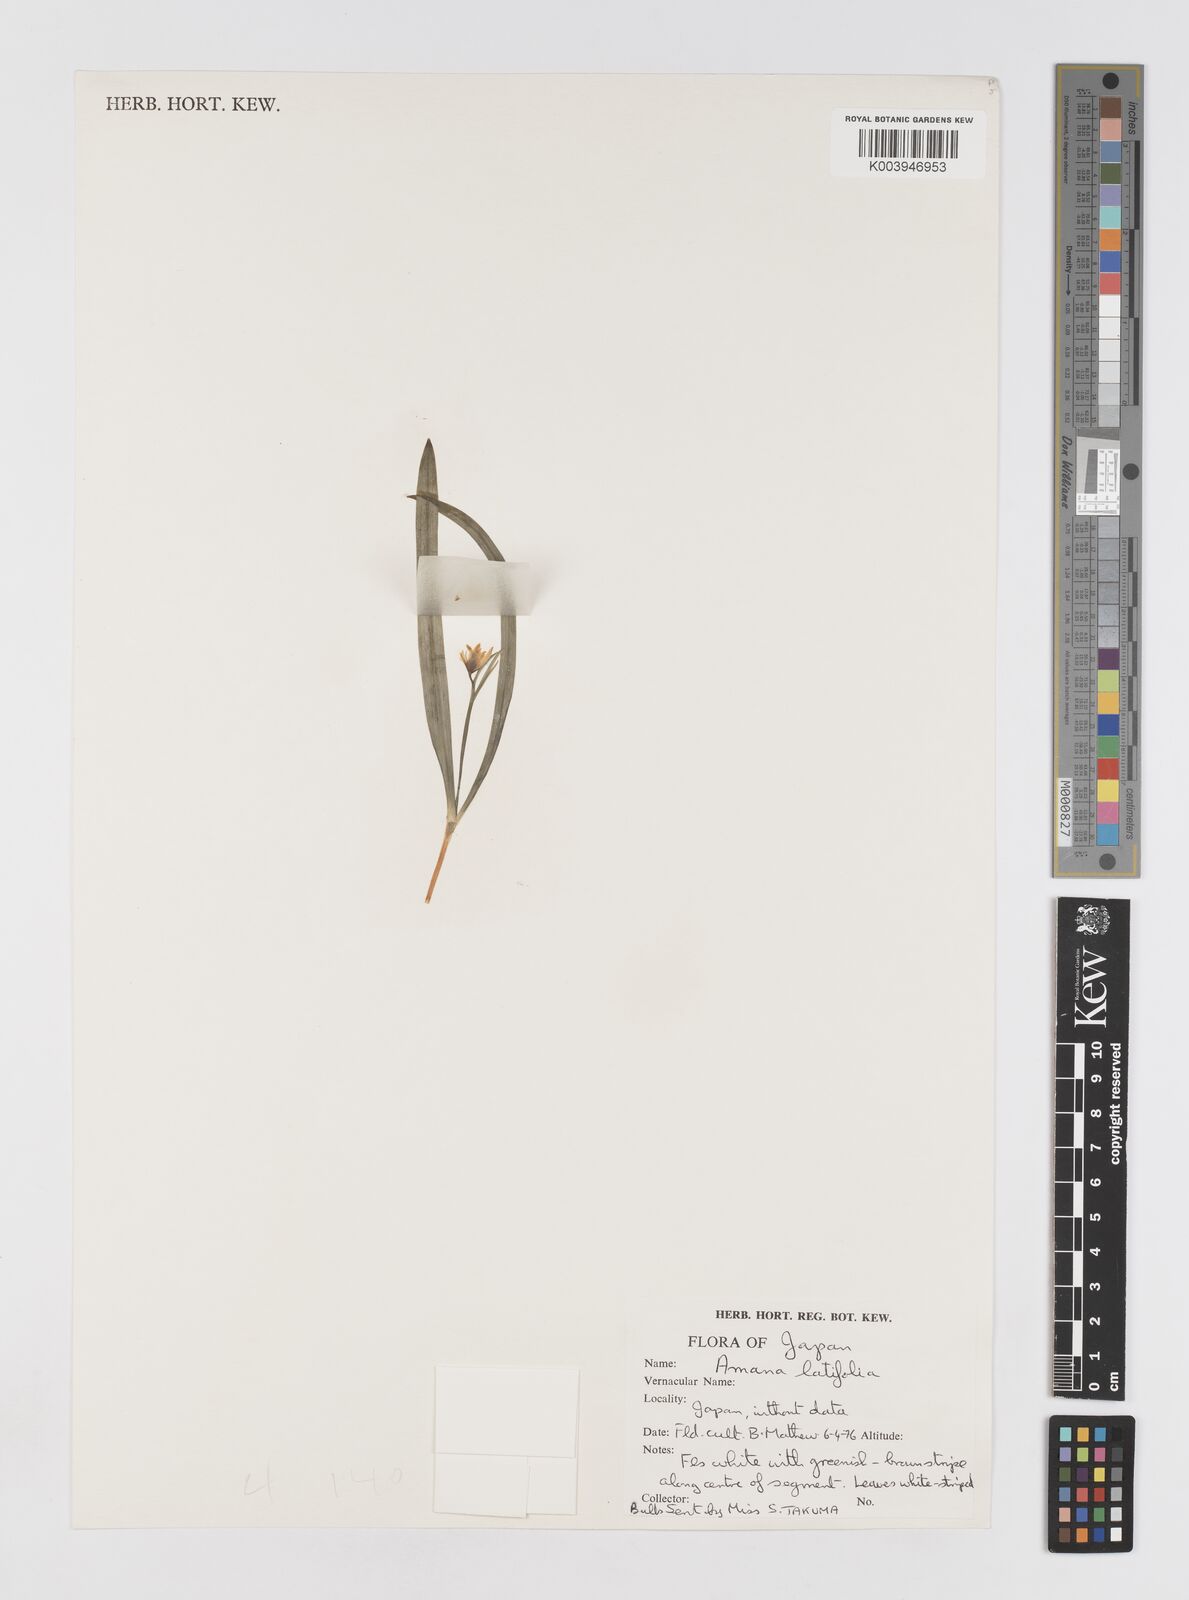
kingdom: Plantae
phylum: Tracheophyta
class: Liliopsida
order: Liliales
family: Liliaceae
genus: Amana
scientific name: Amana erythronioides
